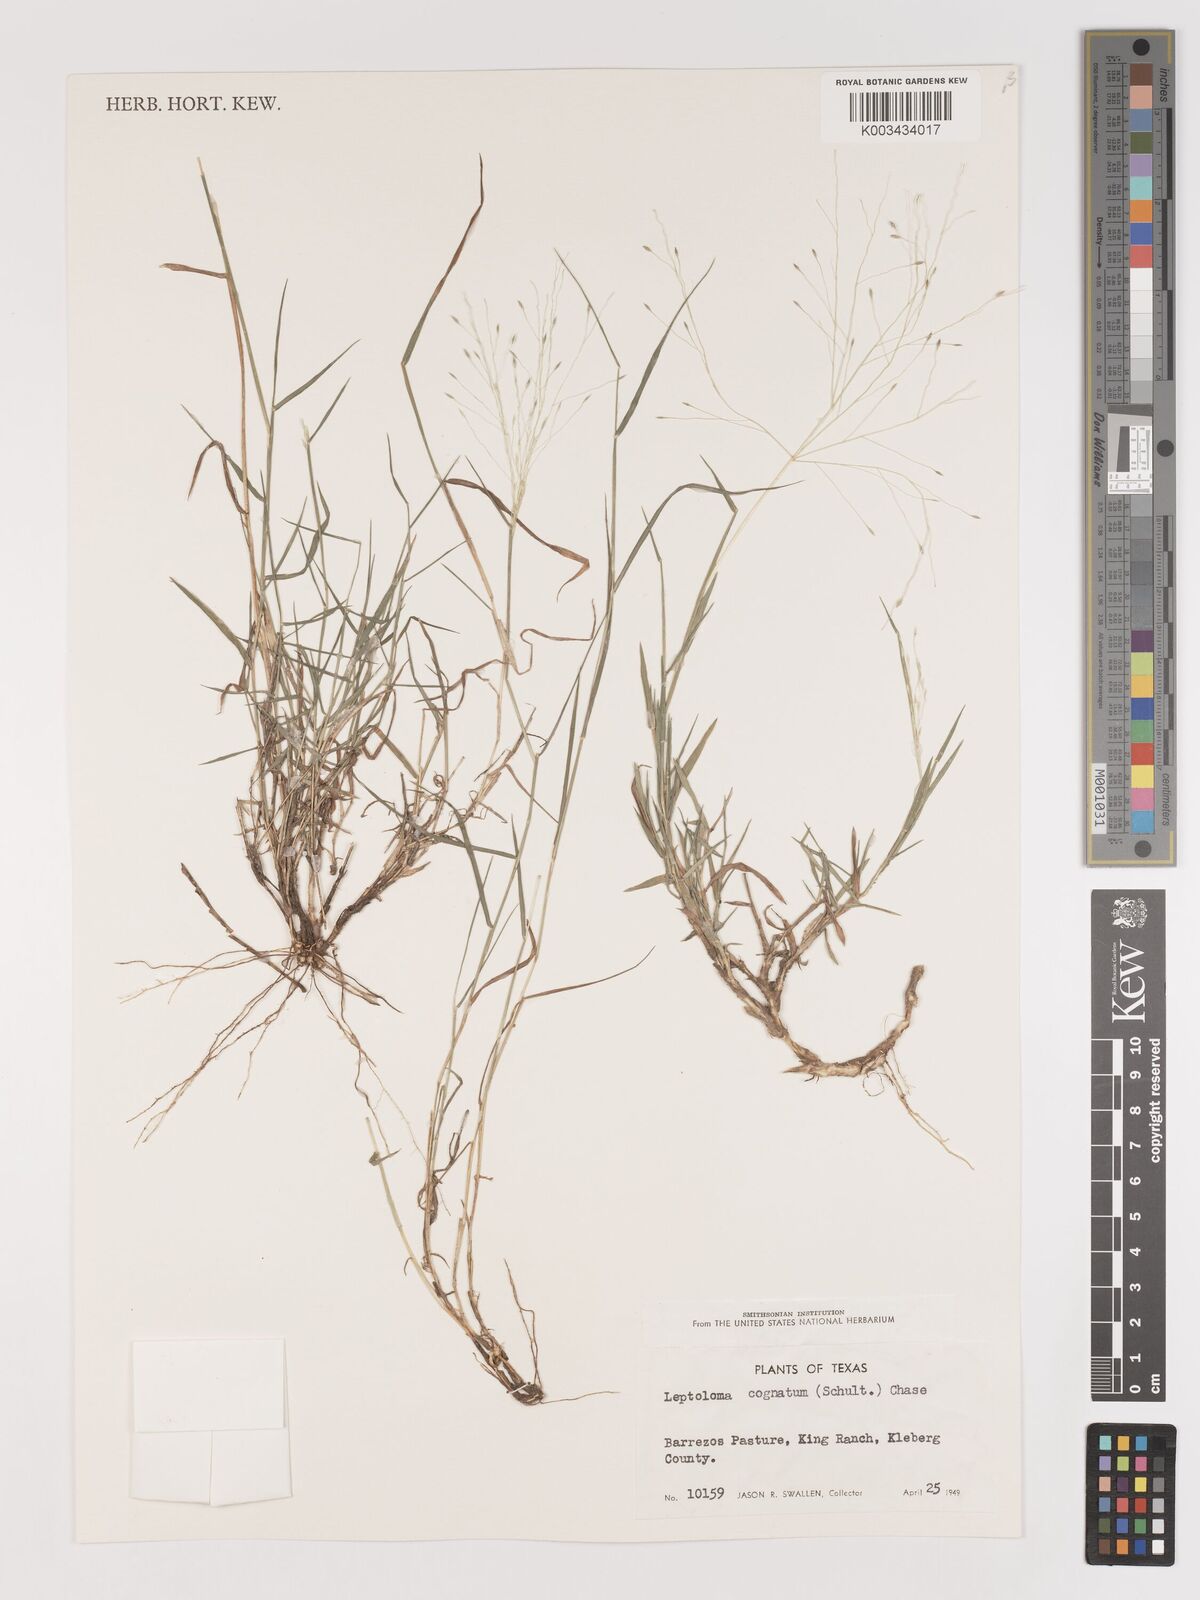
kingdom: Plantae
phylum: Tracheophyta
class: Liliopsida
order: Poales
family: Poaceae
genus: Digitaria
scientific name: Digitaria cognata
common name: Fall witchgrass
